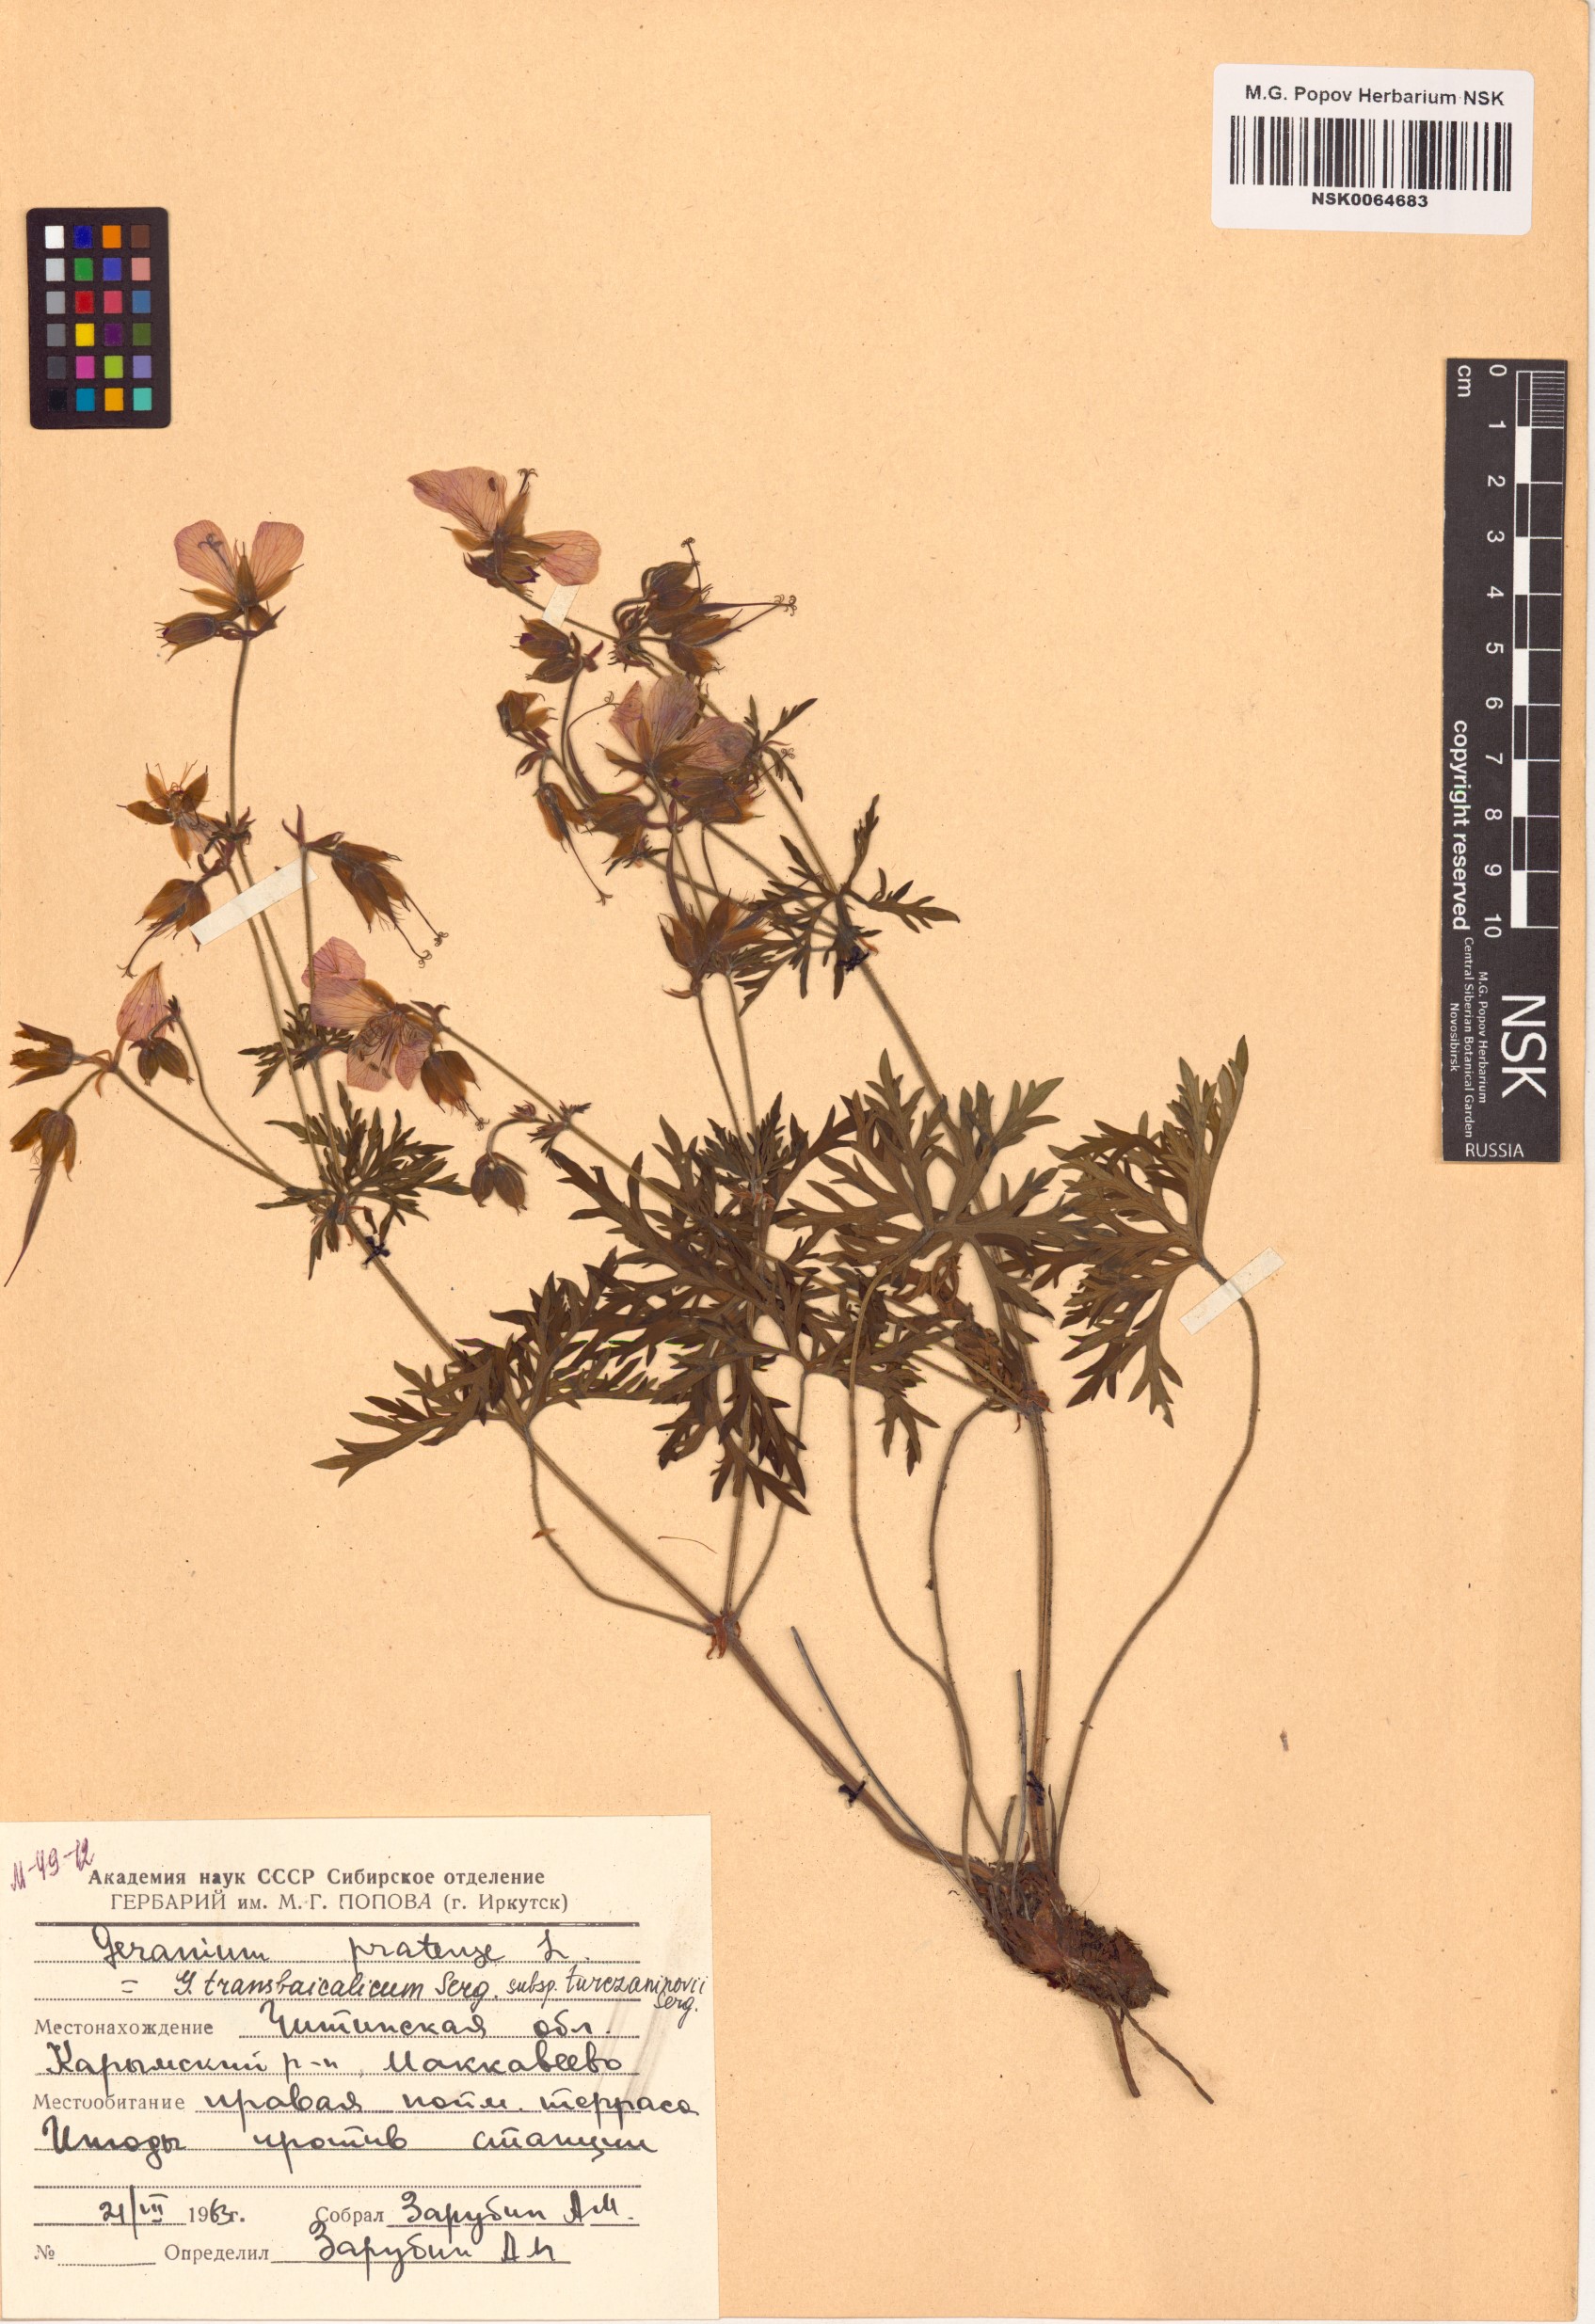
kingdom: Plantae
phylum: Tracheophyta
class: Magnoliopsida
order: Geraniales
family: Geraniaceae
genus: Geranium
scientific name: Geranium pratense
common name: Meadow crane's-bill
